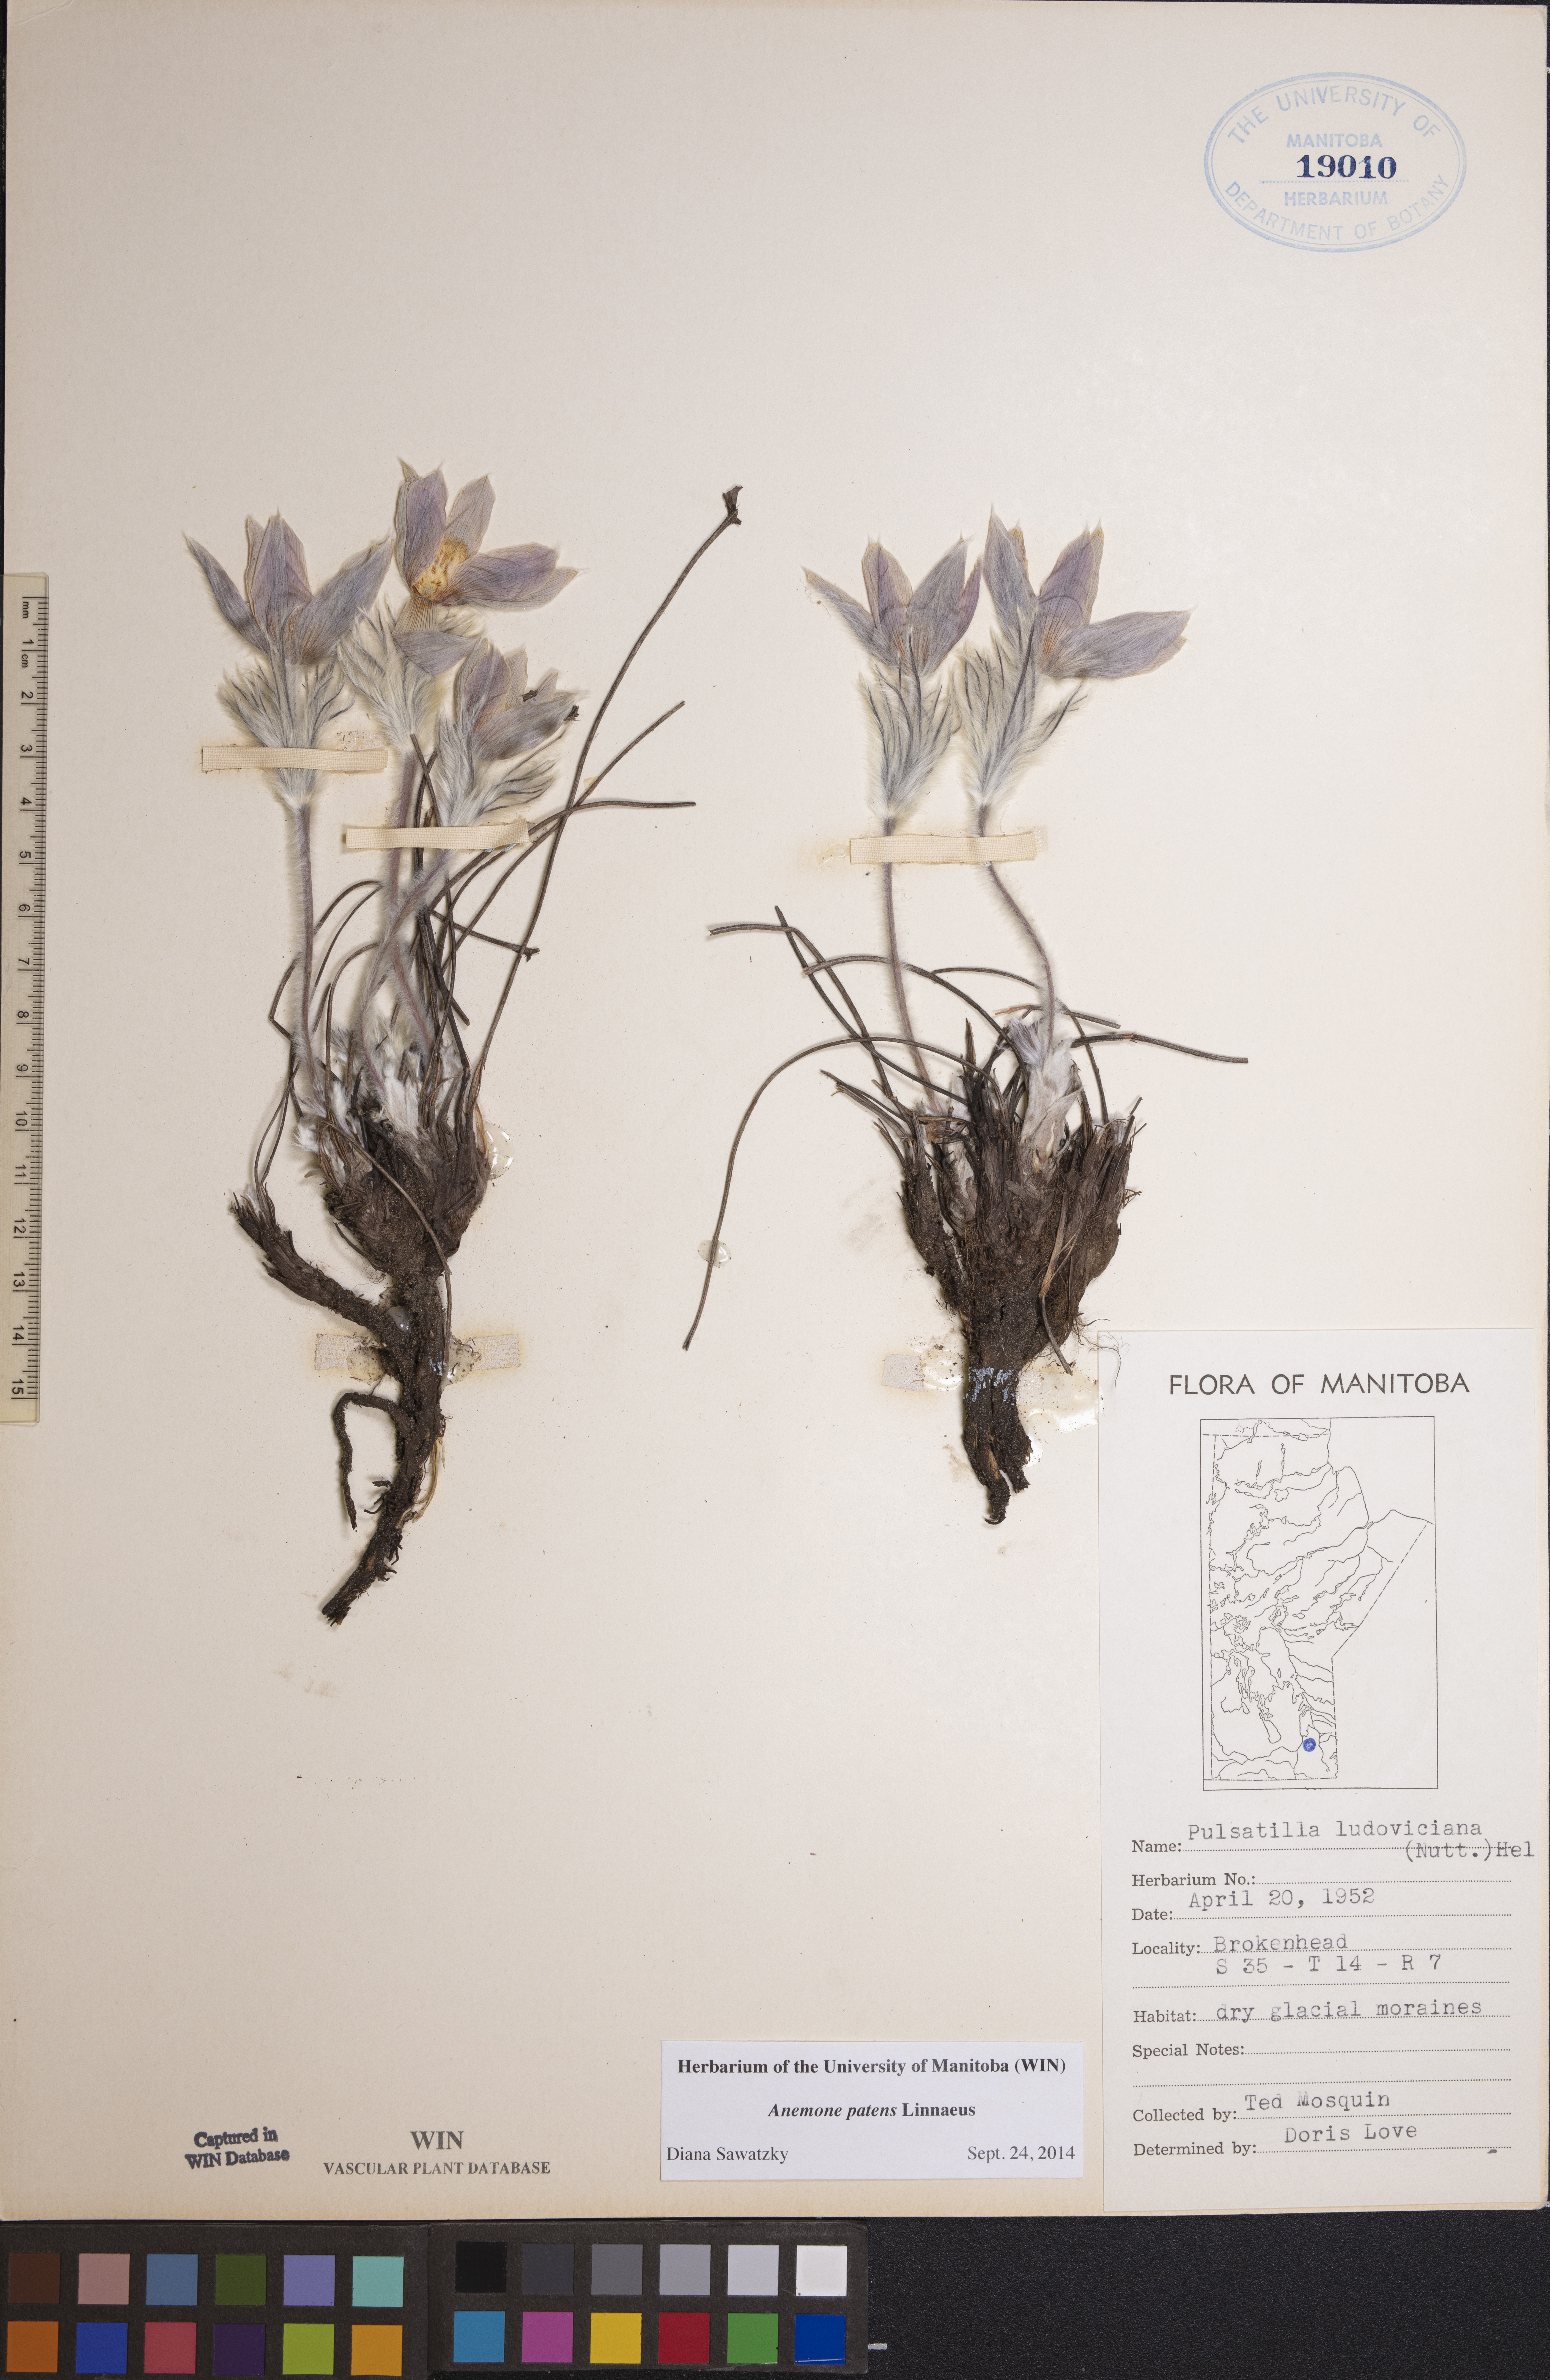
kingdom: Plantae
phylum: Tracheophyta
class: Magnoliopsida
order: Ranunculales
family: Ranunculaceae
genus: Pulsatilla
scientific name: Pulsatilla patens
